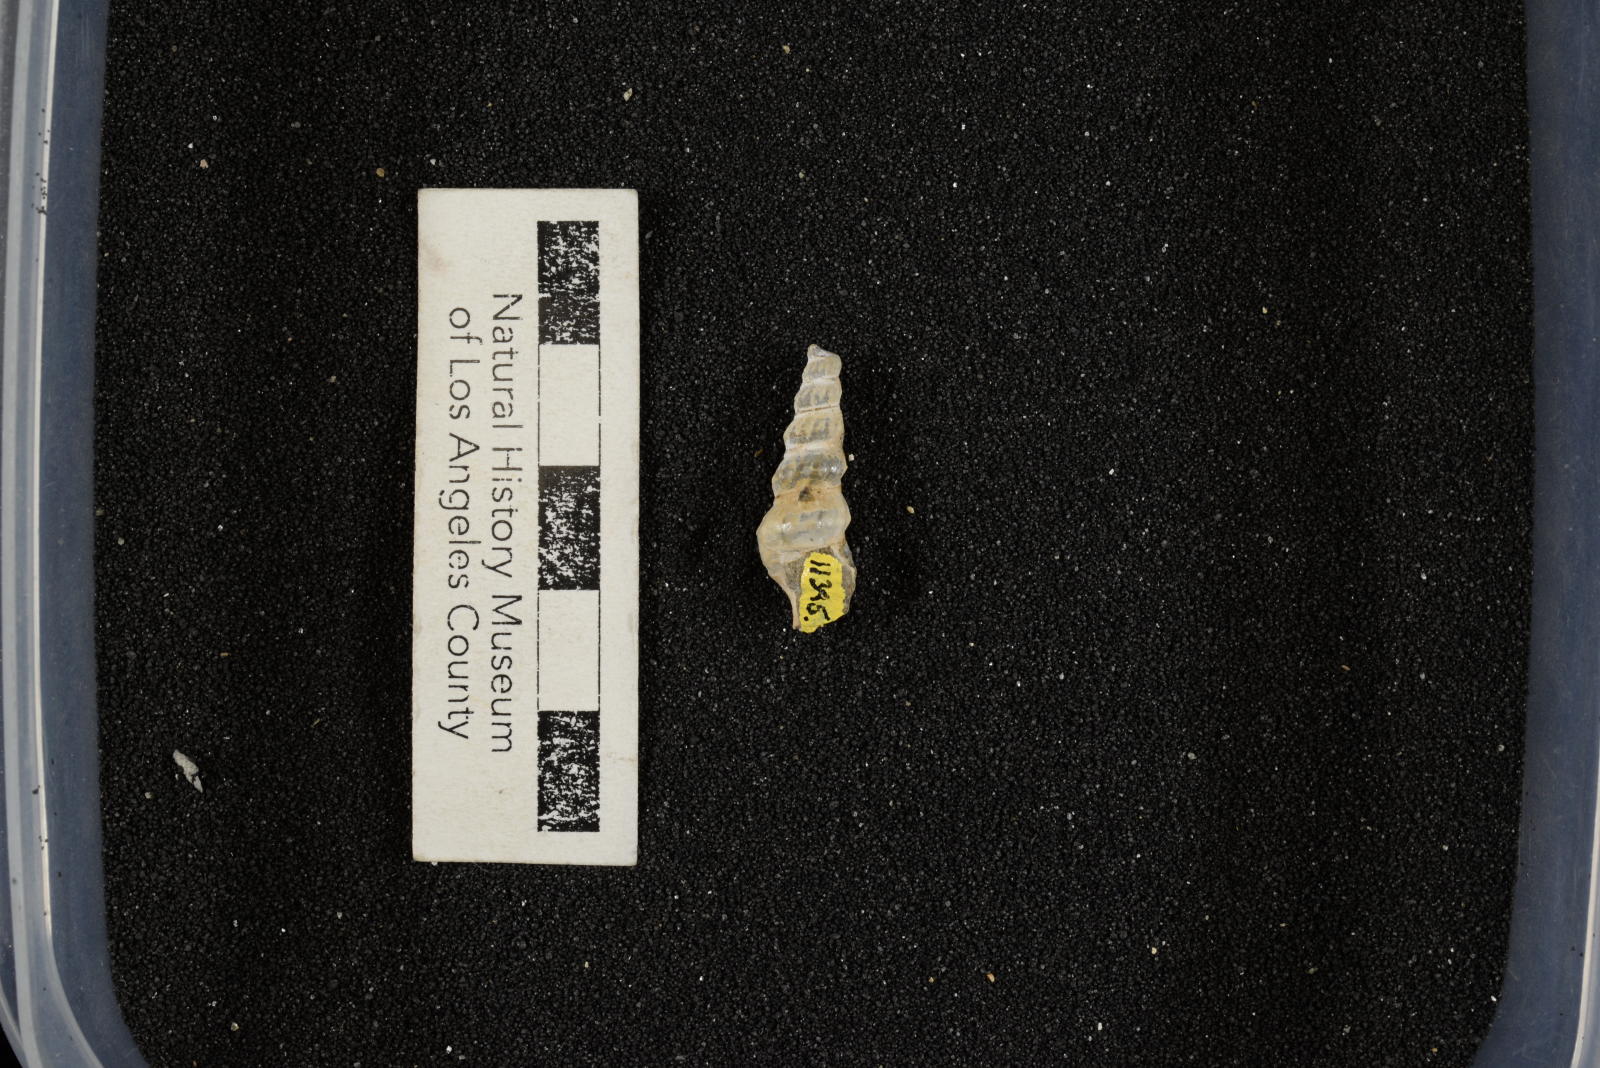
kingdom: Animalia
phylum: Mollusca
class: Gastropoda
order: Littorinimorpha
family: Aporrhaidae
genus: Anchura
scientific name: Anchura phaba
